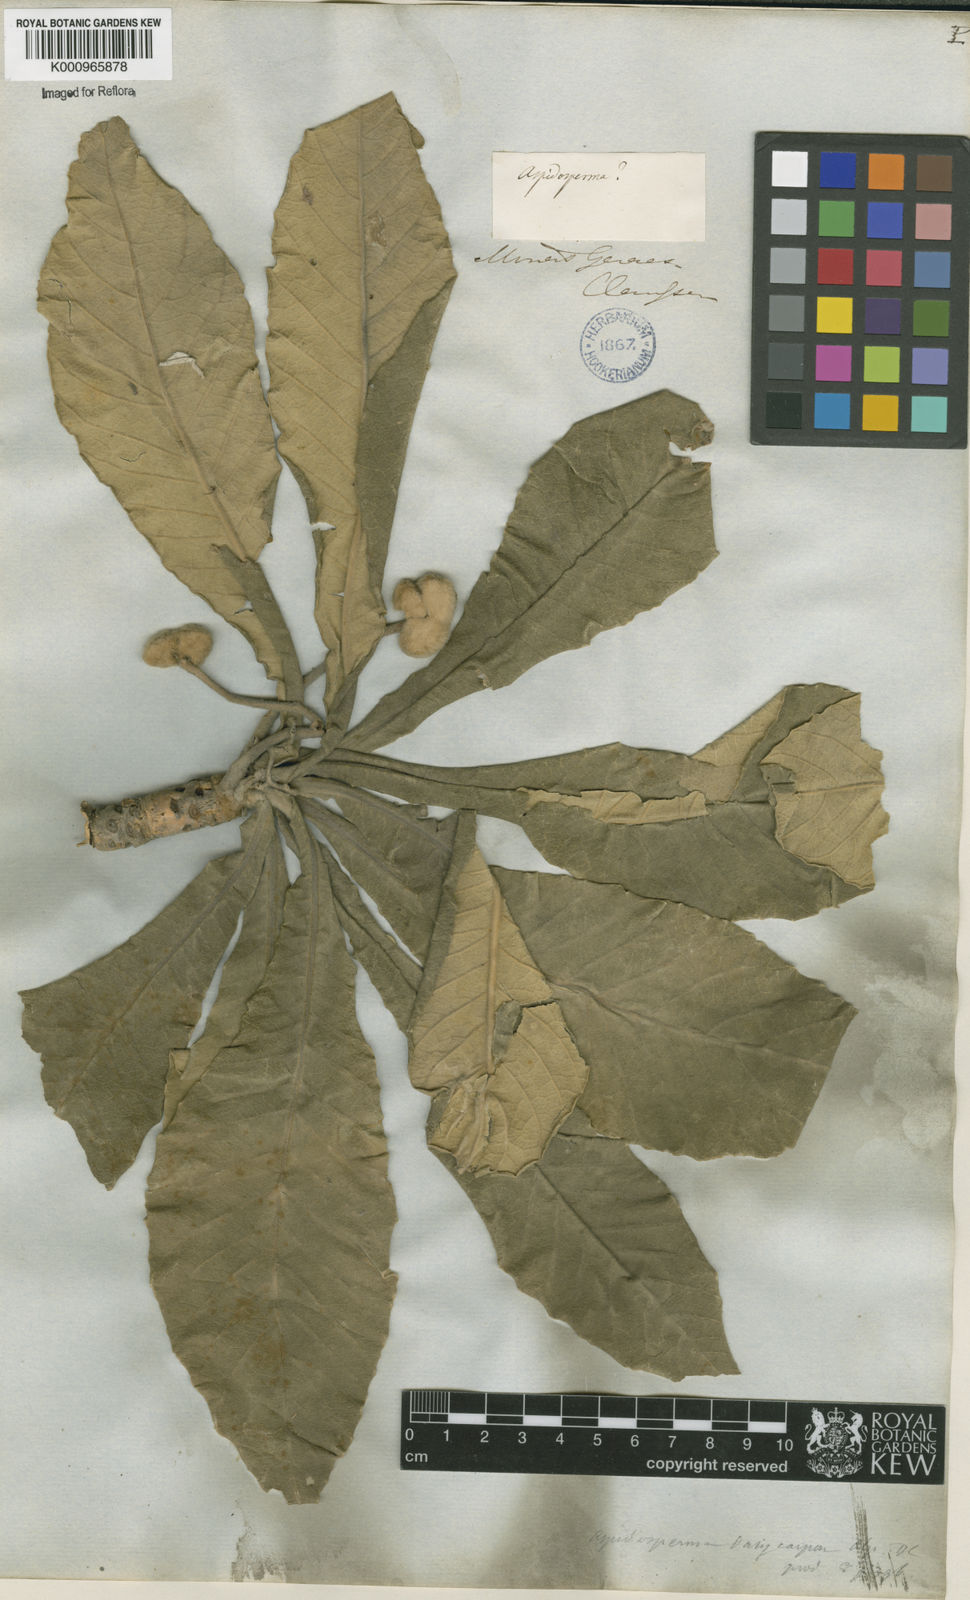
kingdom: Plantae
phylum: Tracheophyta
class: Magnoliopsida
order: Gentianales
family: Apocynaceae
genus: Aspidosperma
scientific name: Aspidosperma tomentosum
